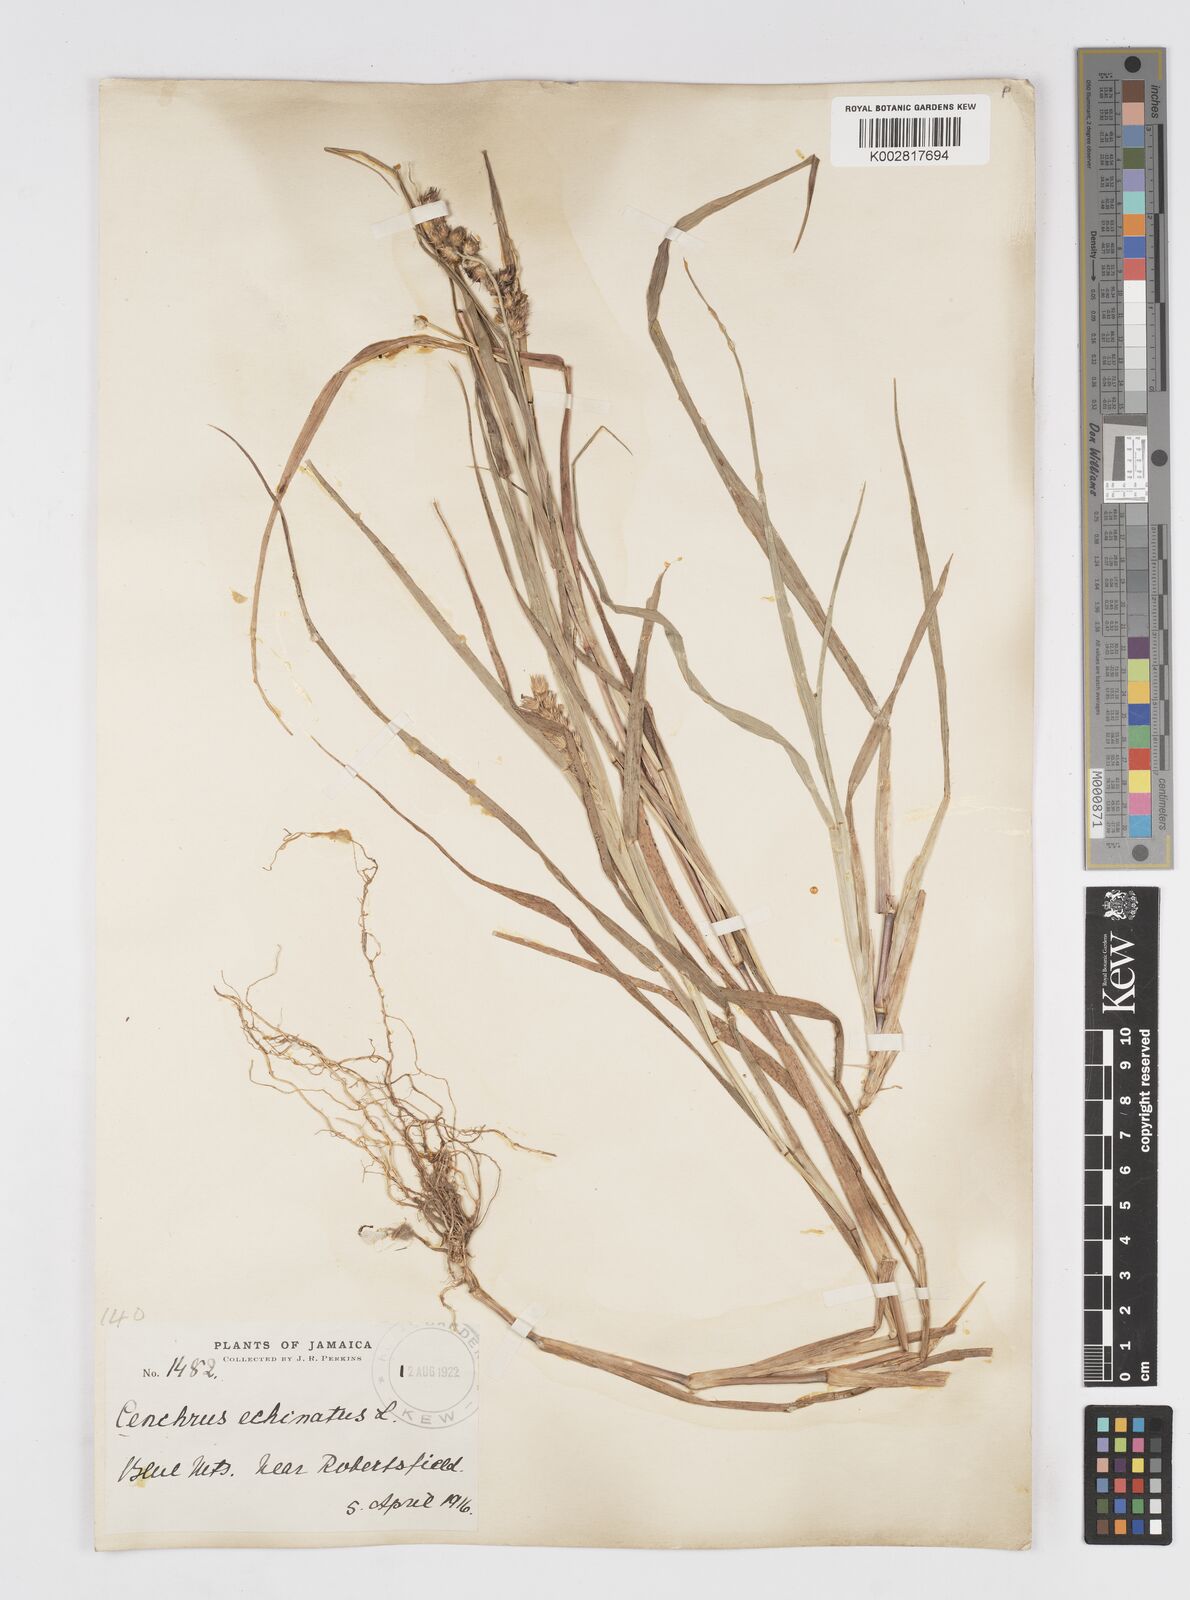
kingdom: Plantae
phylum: Tracheophyta
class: Liliopsida
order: Poales
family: Poaceae
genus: Cenchrus
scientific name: Cenchrus
